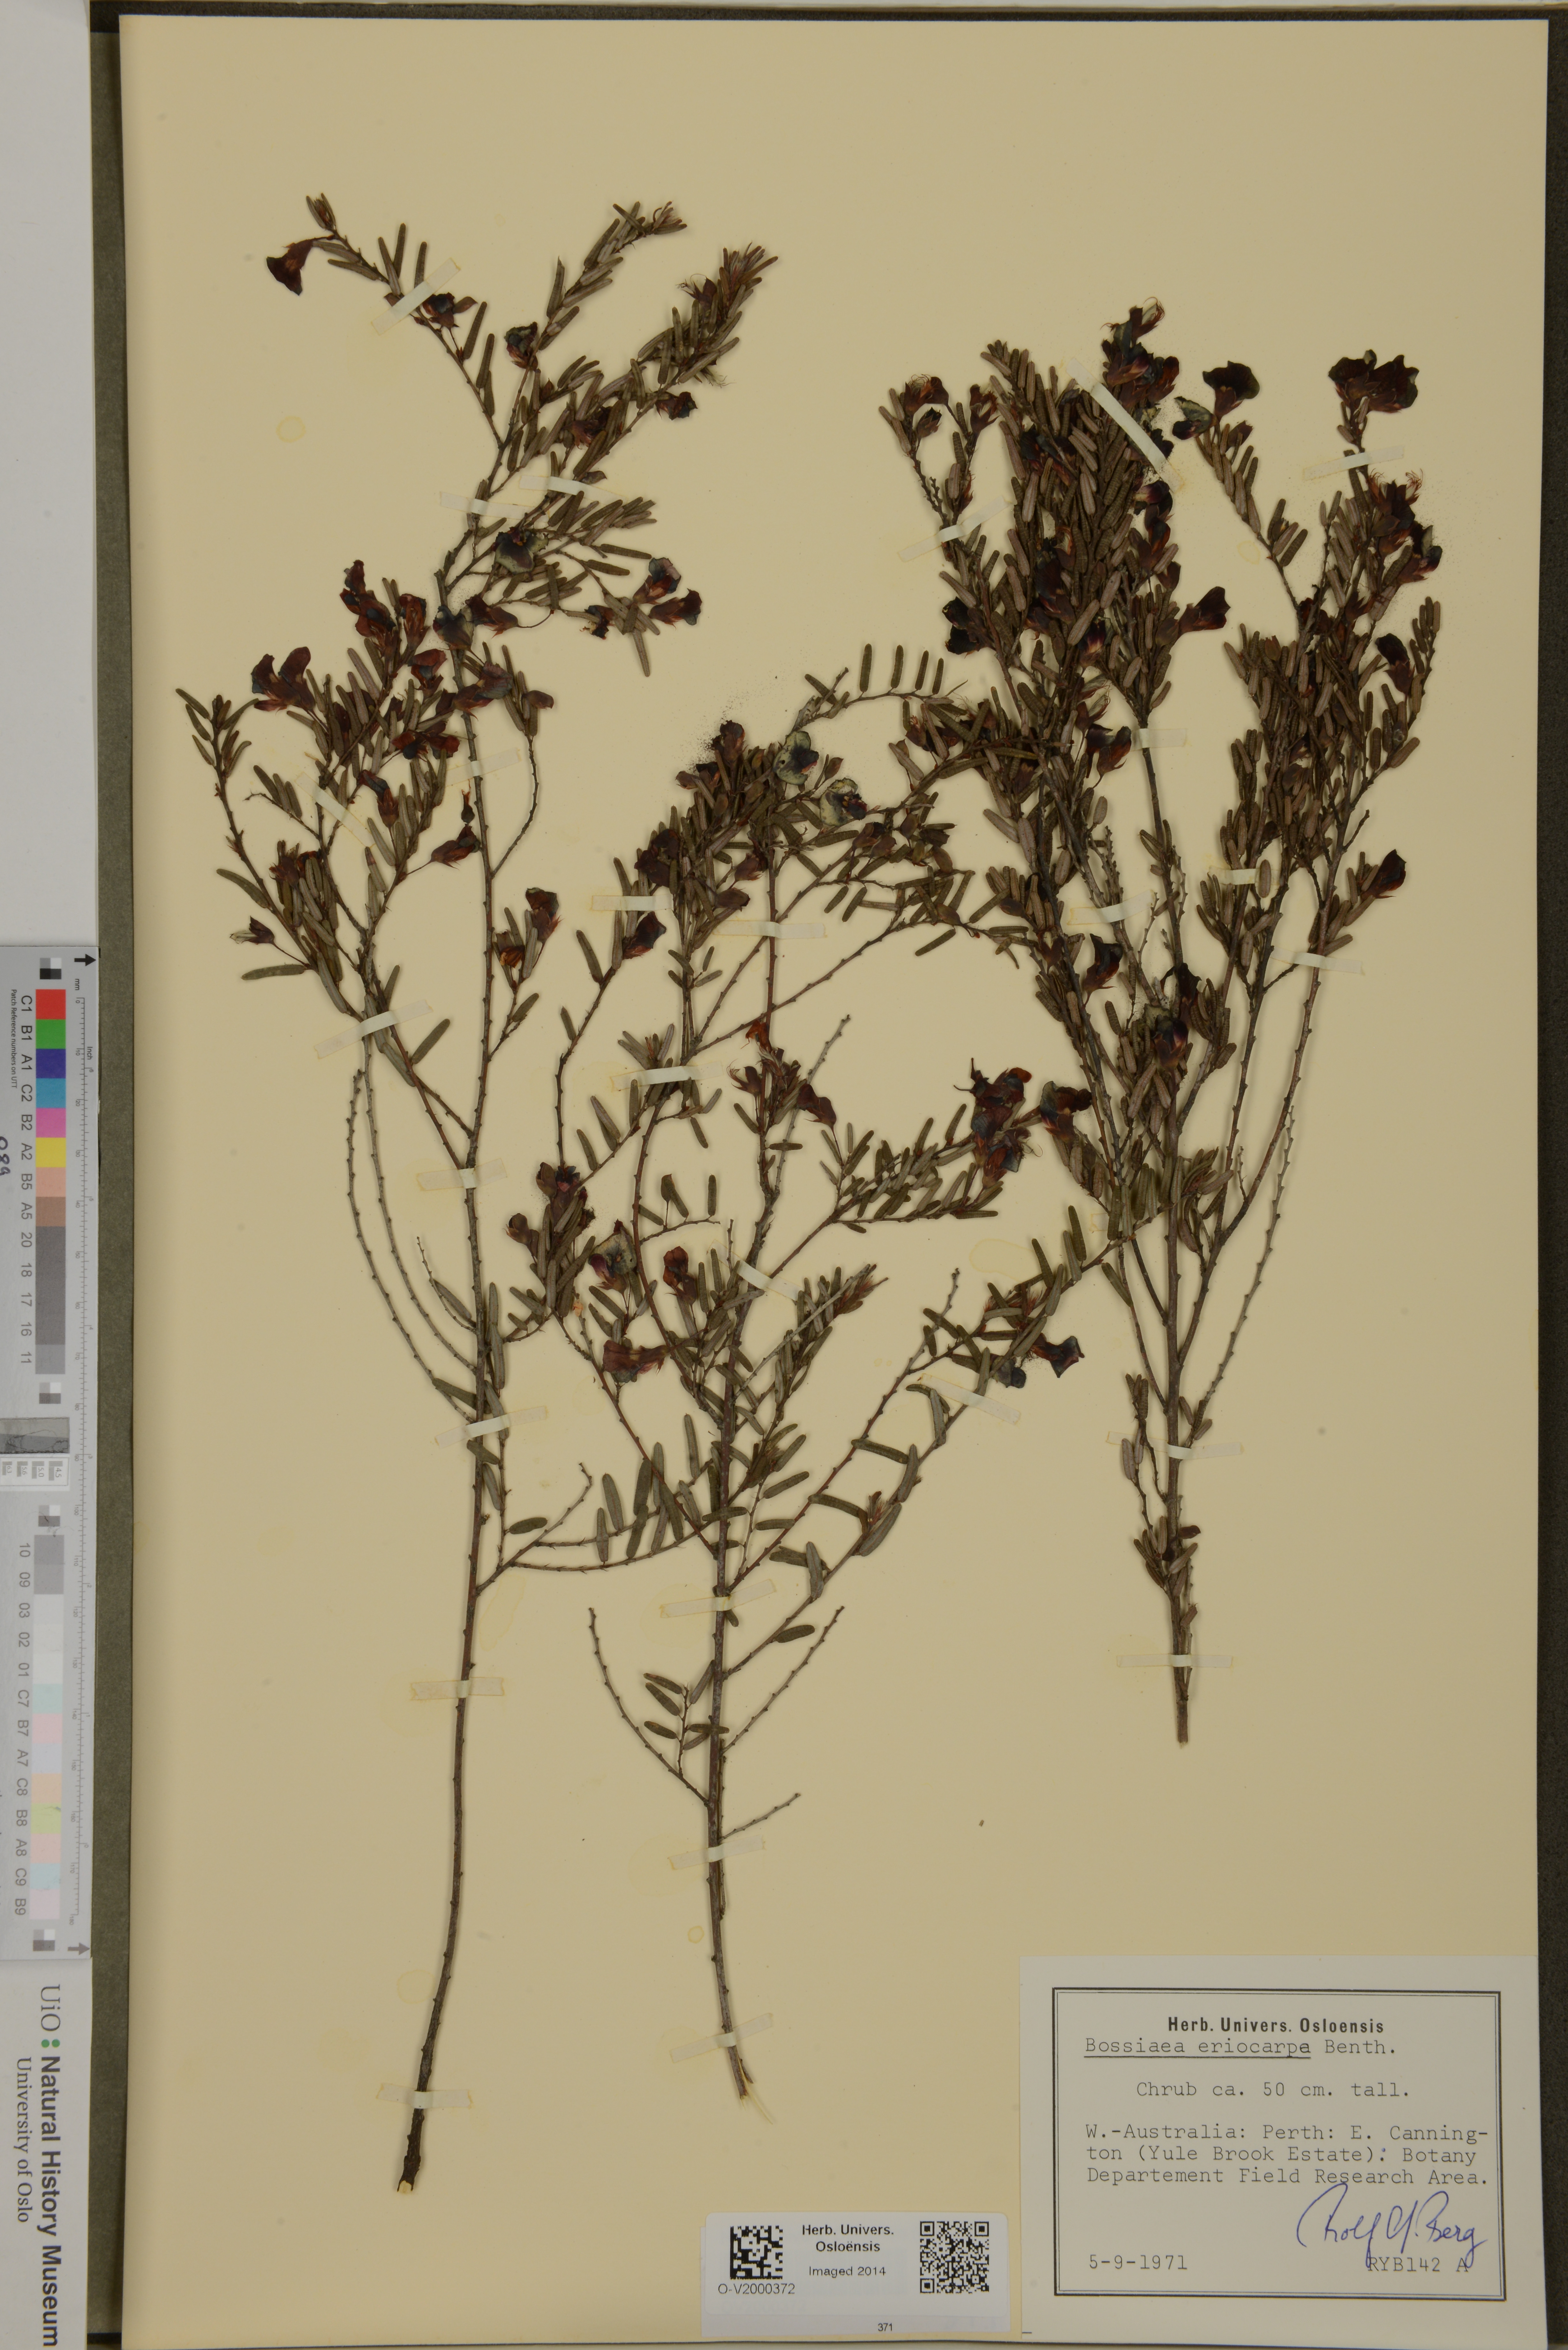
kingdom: Plantae
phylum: Tracheophyta
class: Magnoliopsida
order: Fabales
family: Fabaceae
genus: Bossiaea
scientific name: Bossiaea eriocarpa
